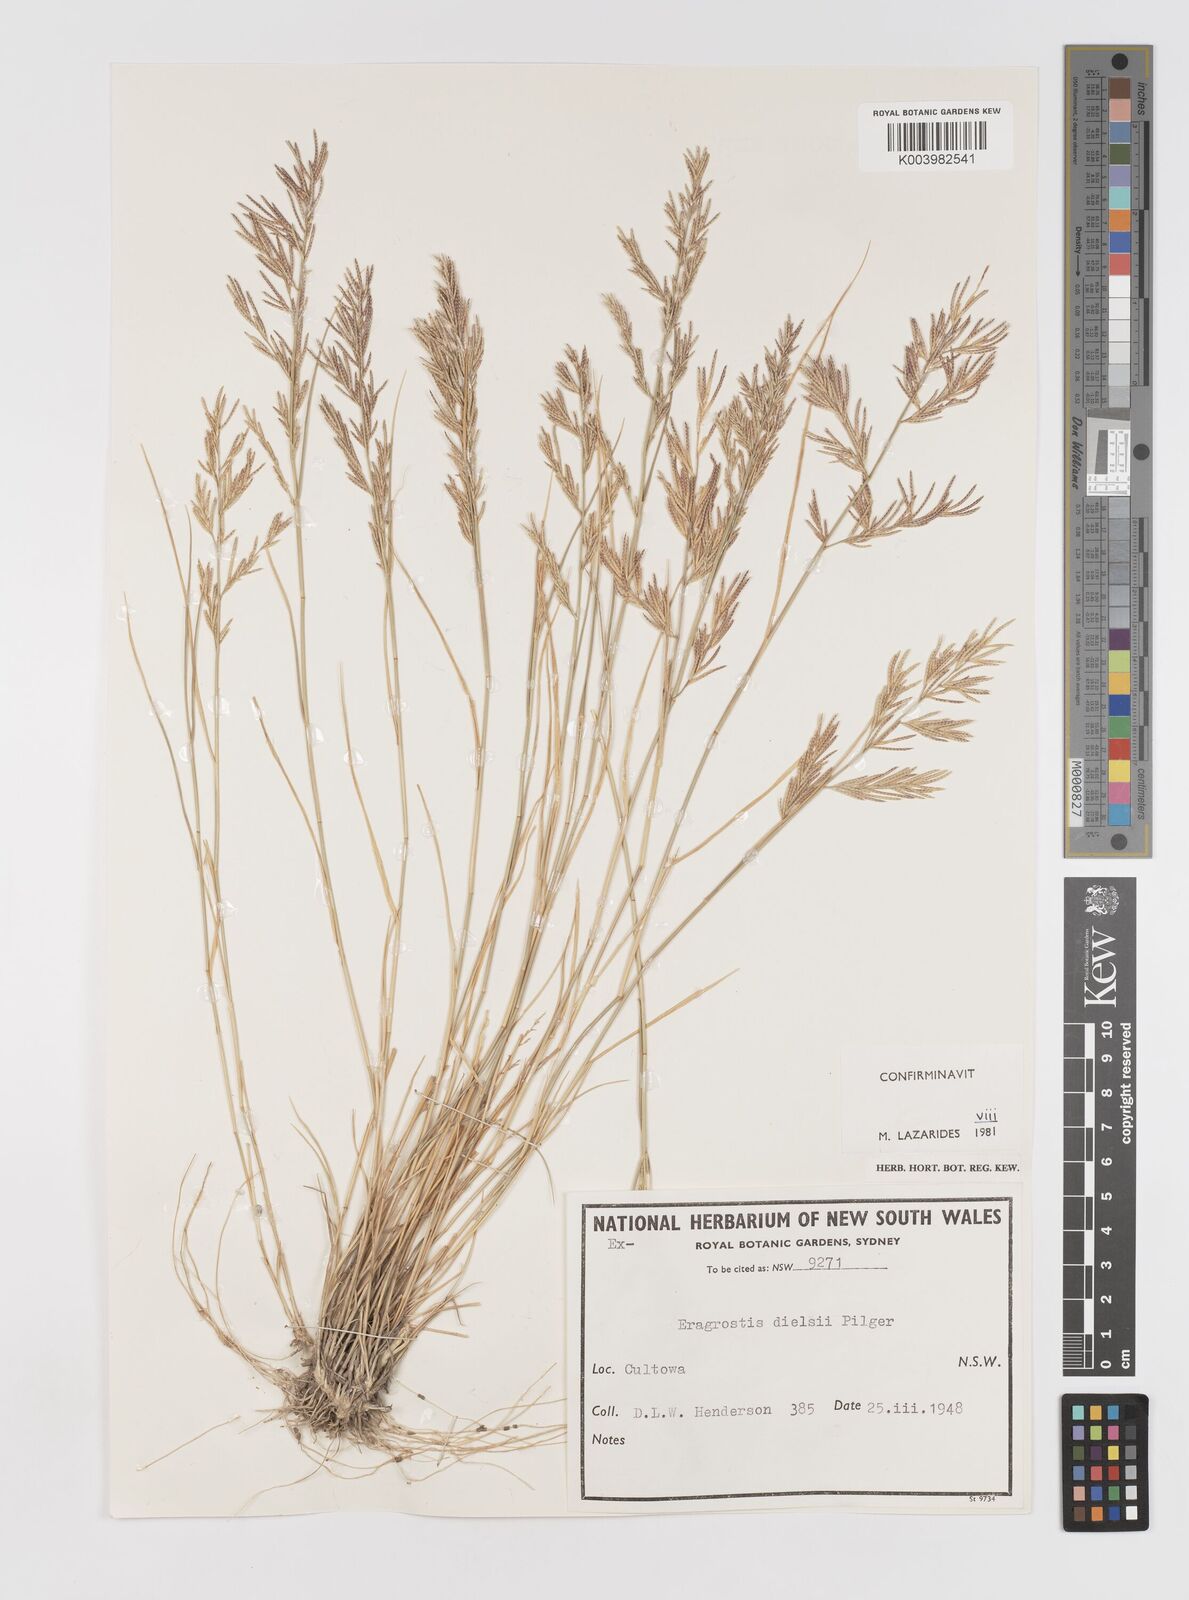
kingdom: Plantae
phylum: Tracheophyta
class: Liliopsida
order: Poales
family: Poaceae
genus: Eragrostis
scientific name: Eragrostis dielsii
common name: Lovegrass
